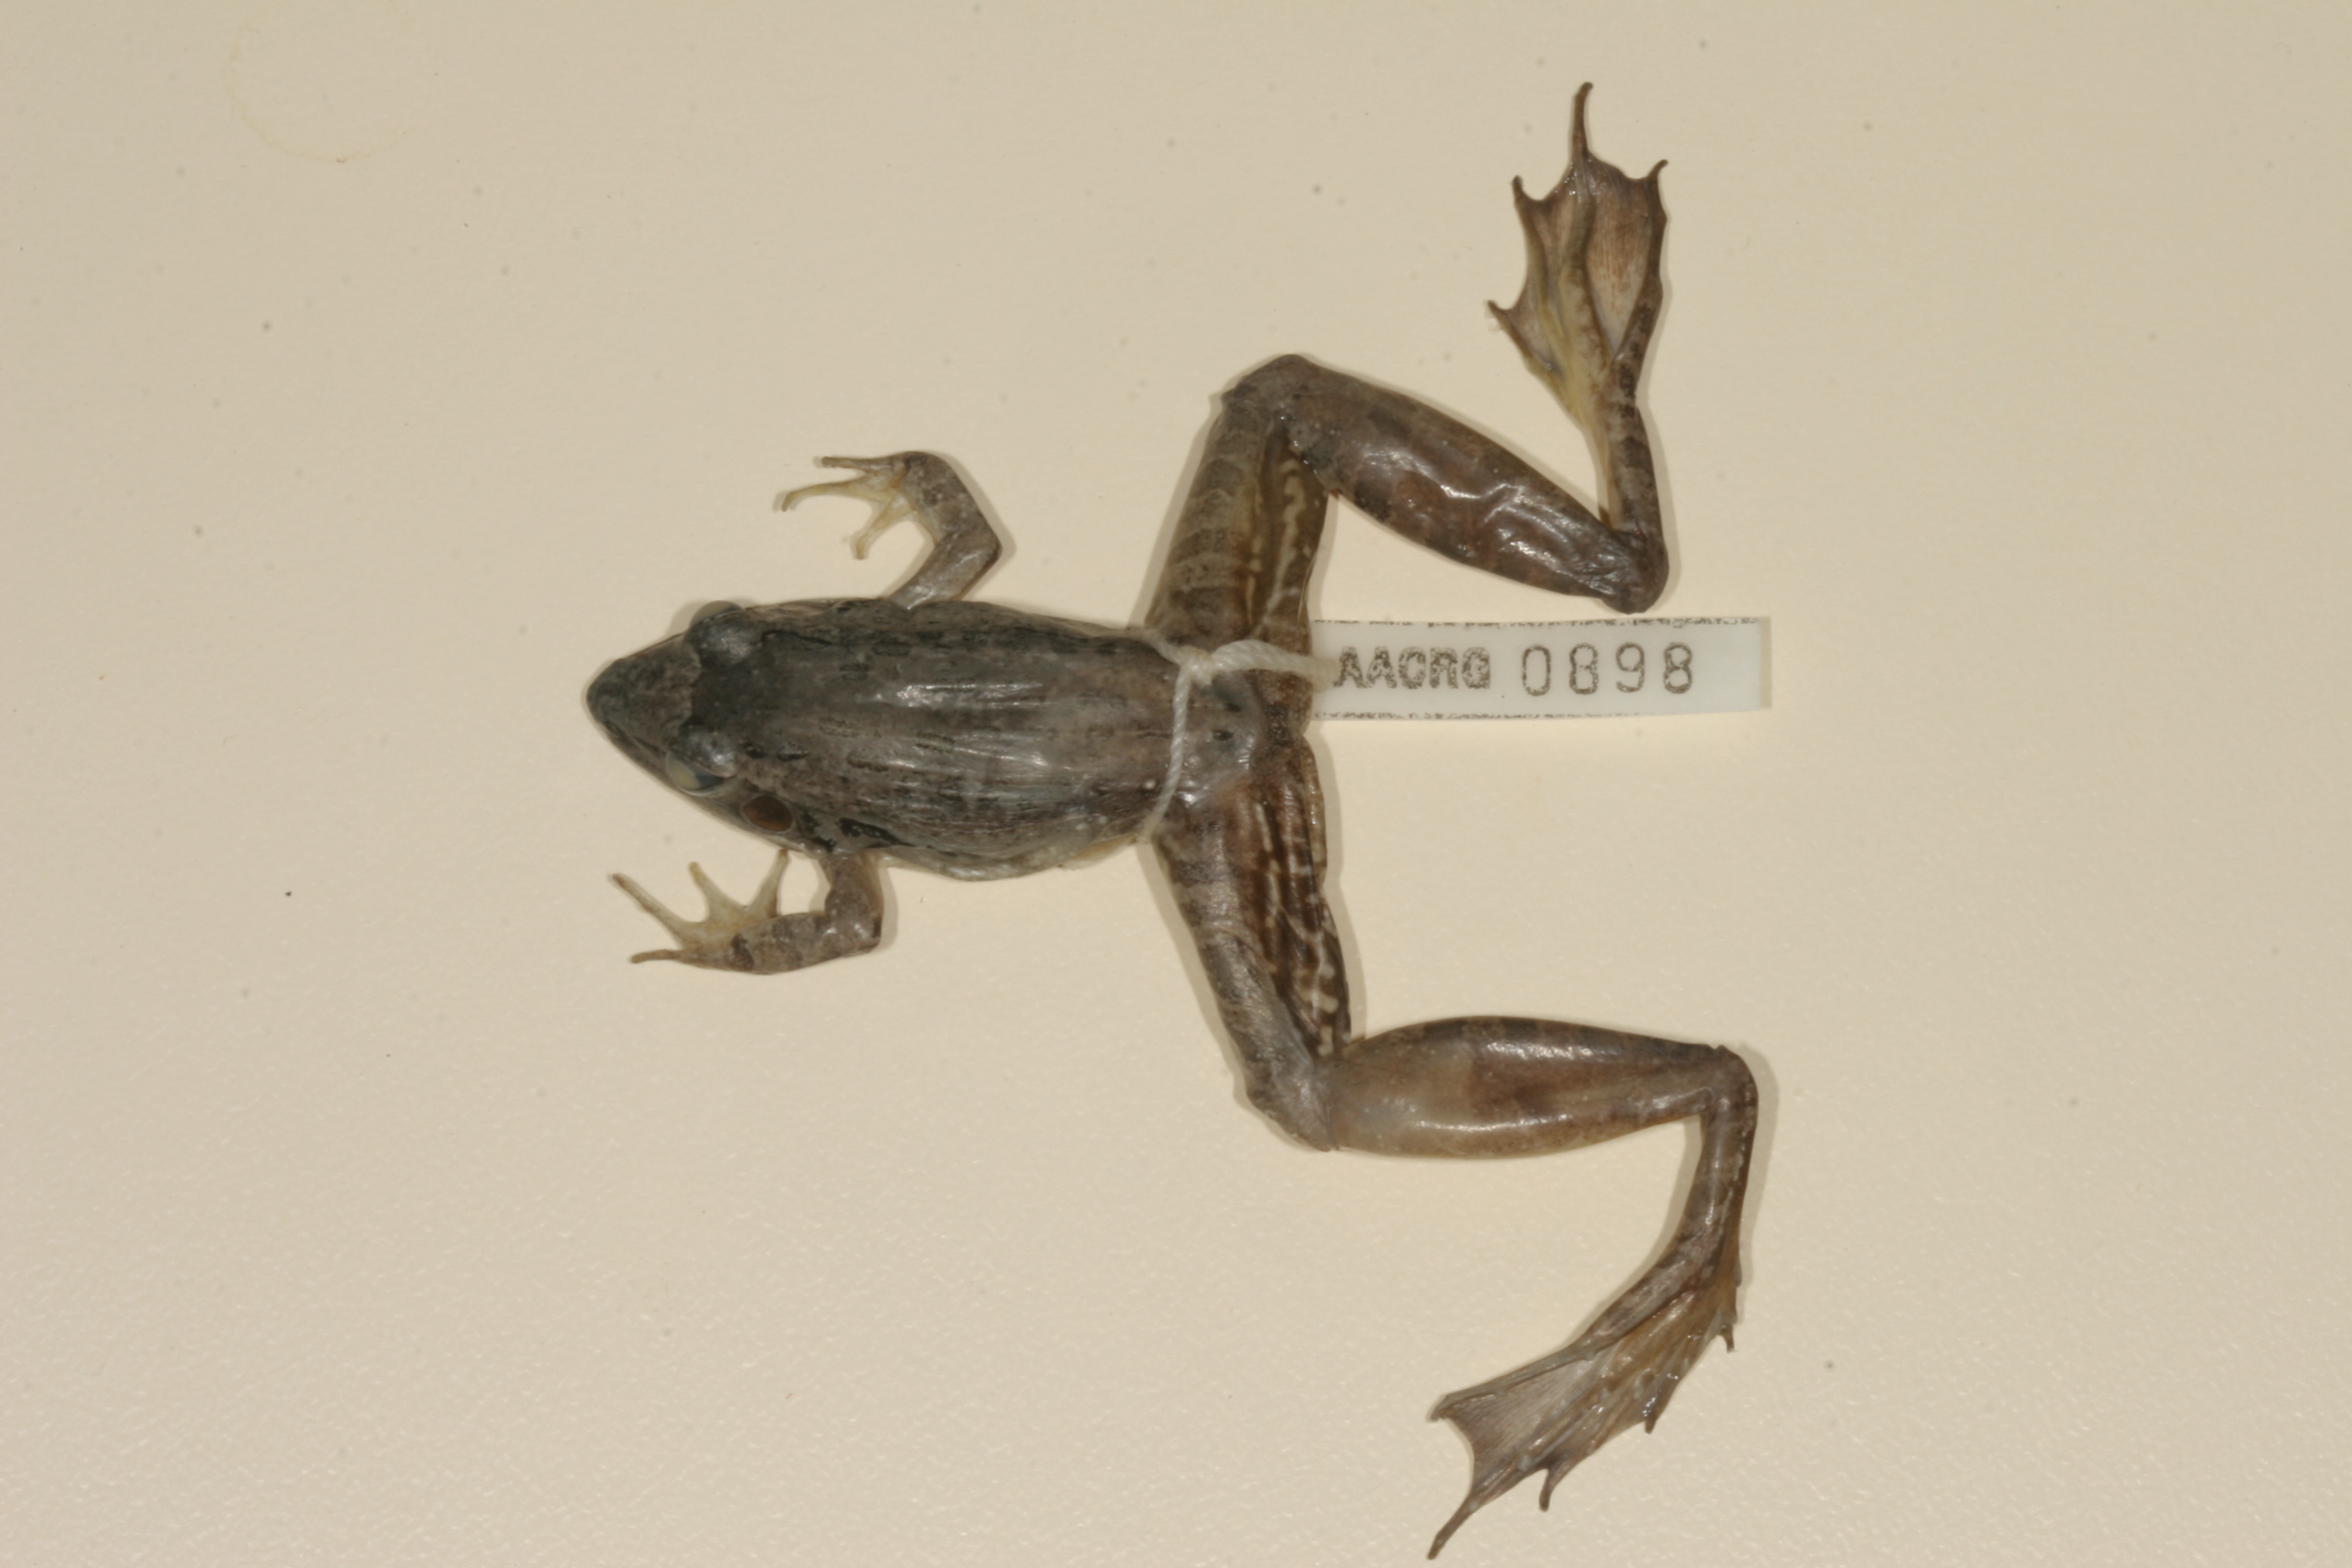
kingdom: Animalia
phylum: Chordata
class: Amphibia
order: Anura
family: Ptychadenidae
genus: Ptychadena
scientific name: Ptychadena anchietae
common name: Anchieta's ridged frog
